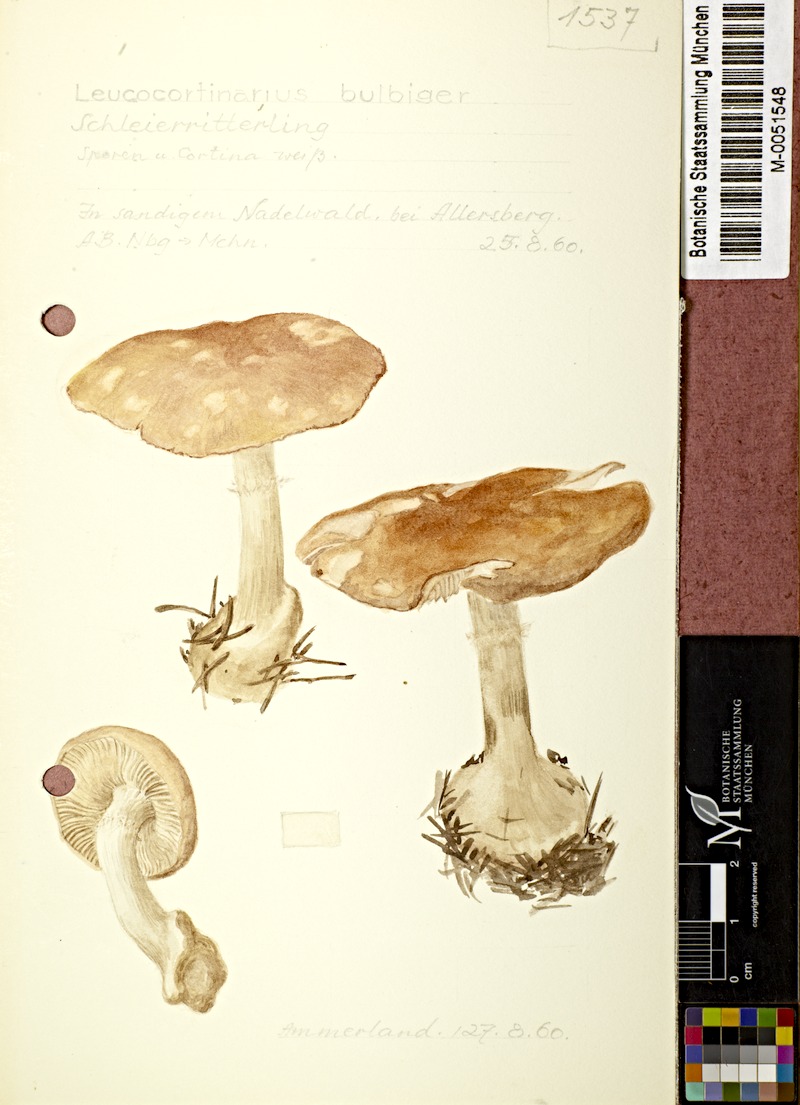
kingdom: Fungi
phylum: Basidiomycota
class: Agaricomycetes
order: Agaricales
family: Tricholomataceae
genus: Leucocortinarius
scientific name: Leucocortinarius bulbiger
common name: White webcap
